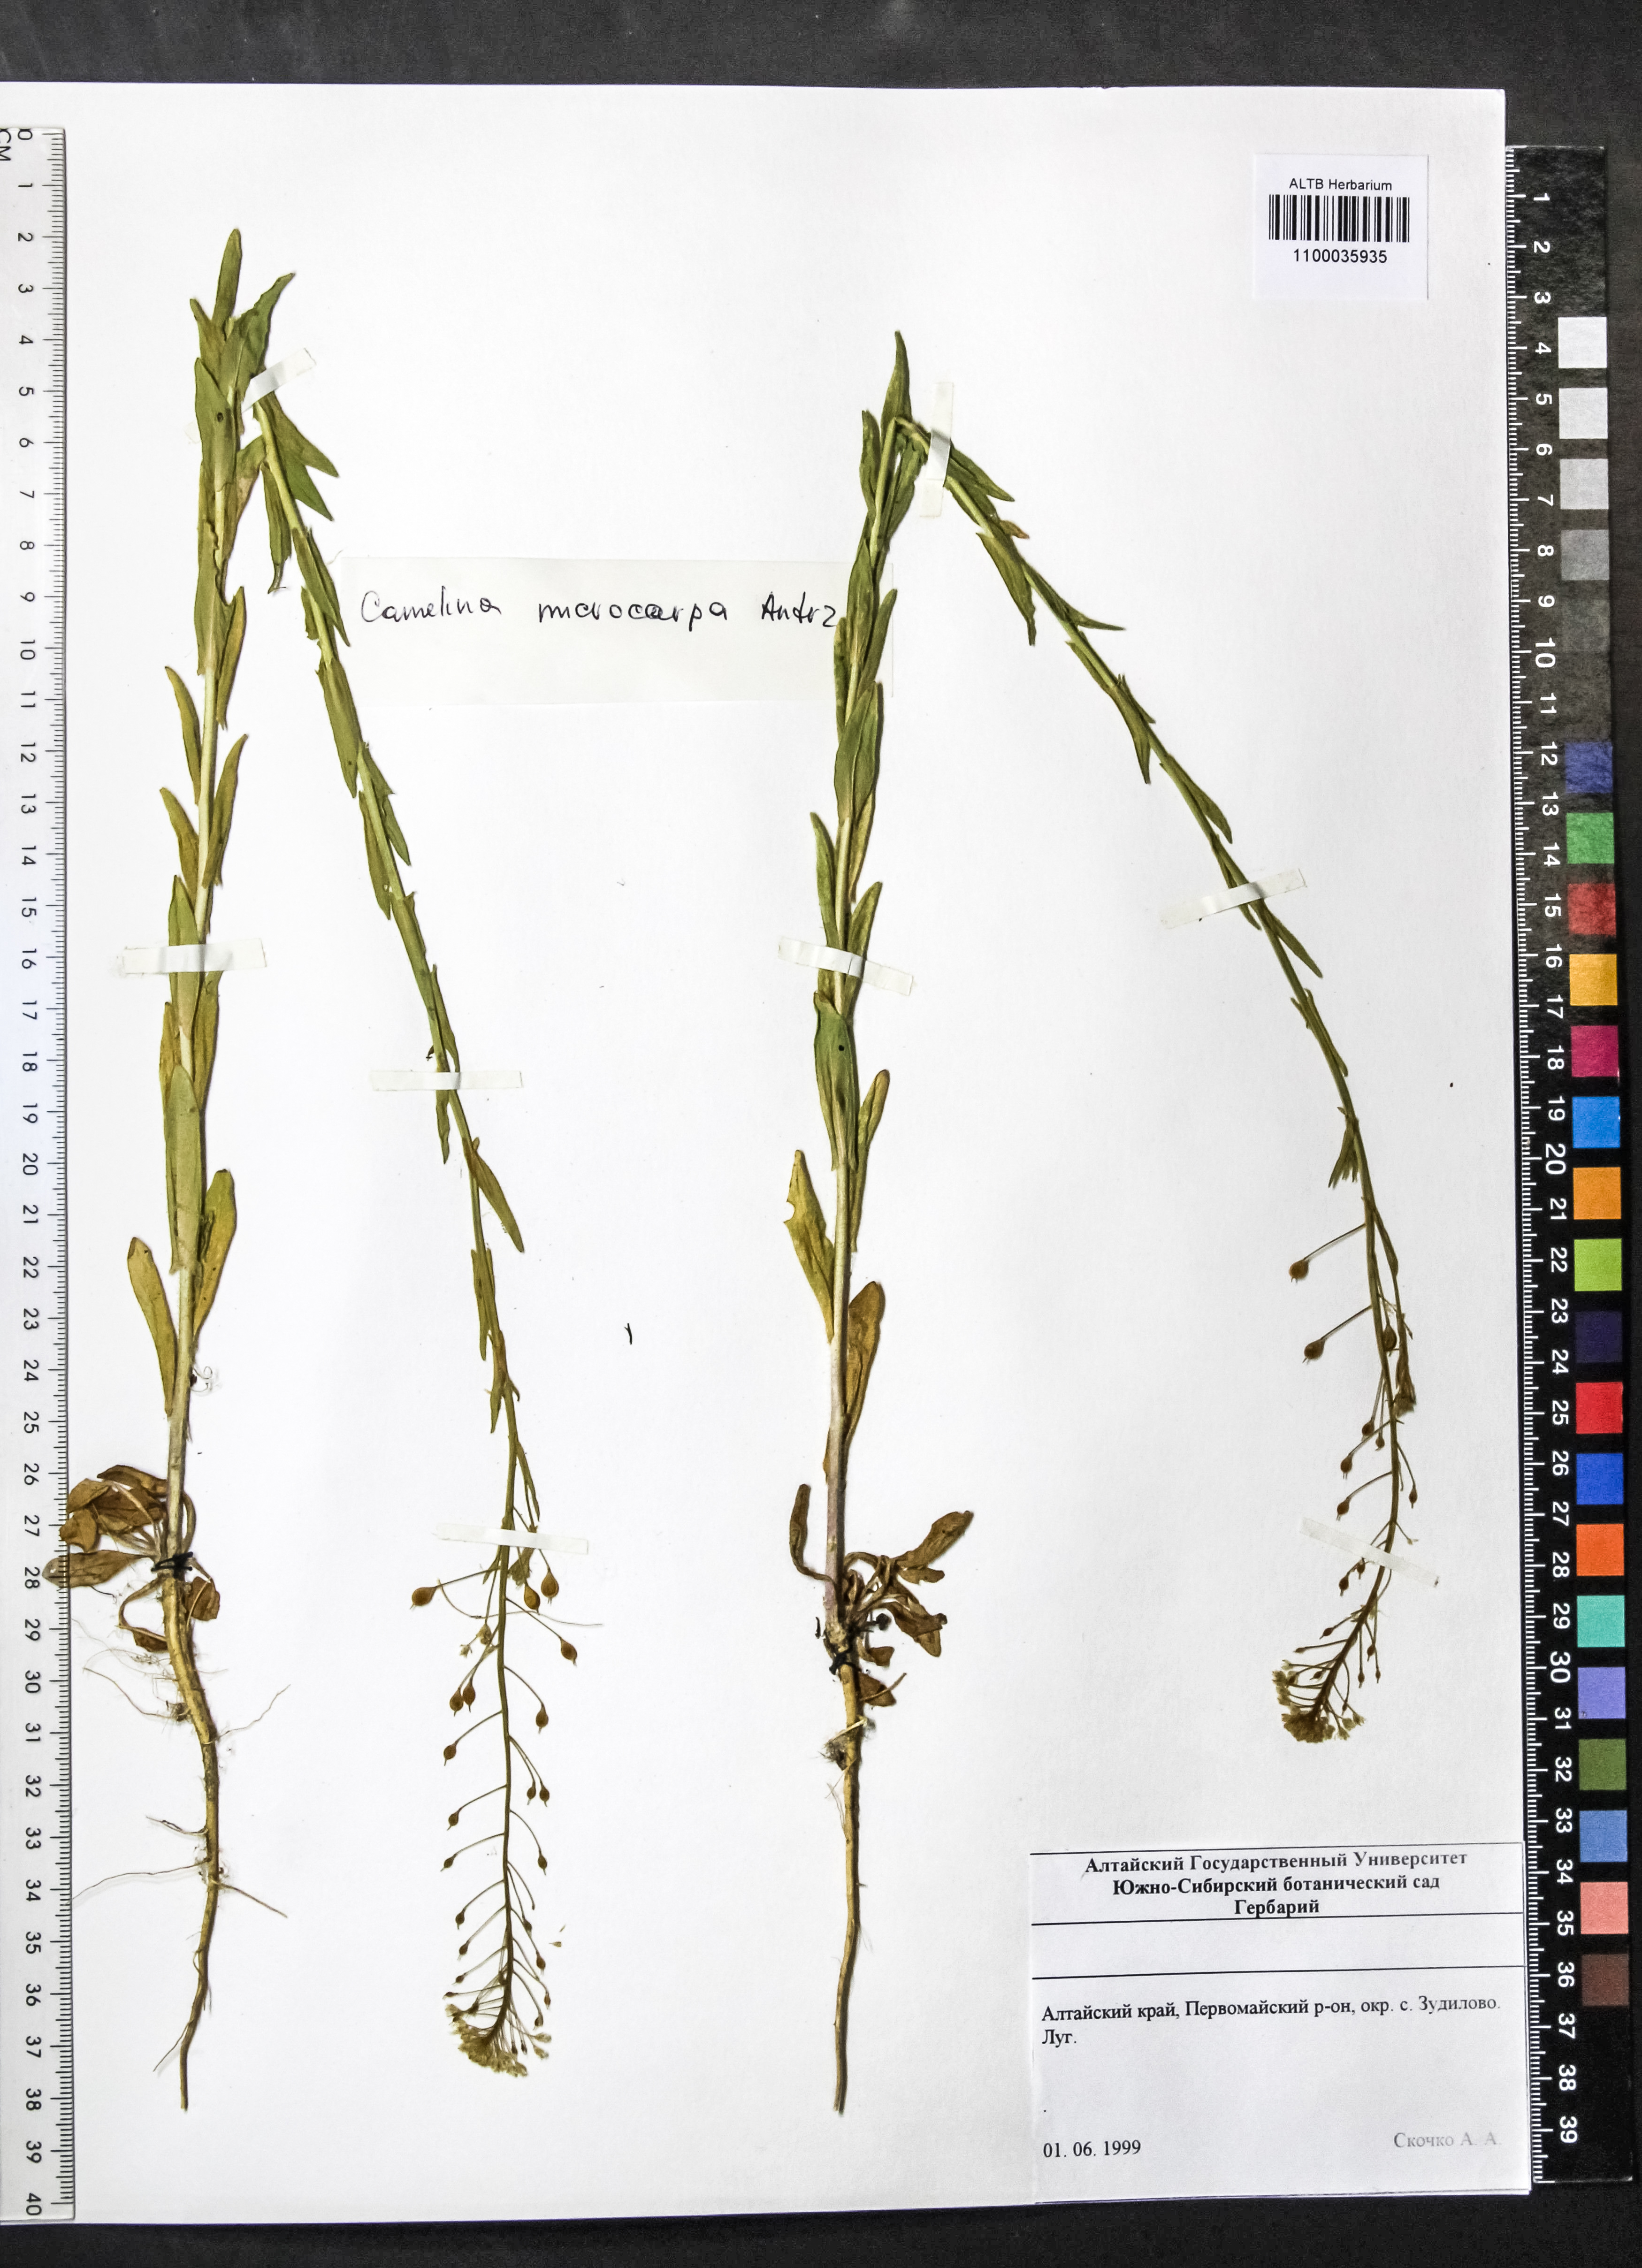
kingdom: Plantae
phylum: Tracheophyta
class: Magnoliopsida
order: Brassicales
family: Brassicaceae
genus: Camelina
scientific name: Camelina microcarpa
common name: Lesser gold-of-pleasure
